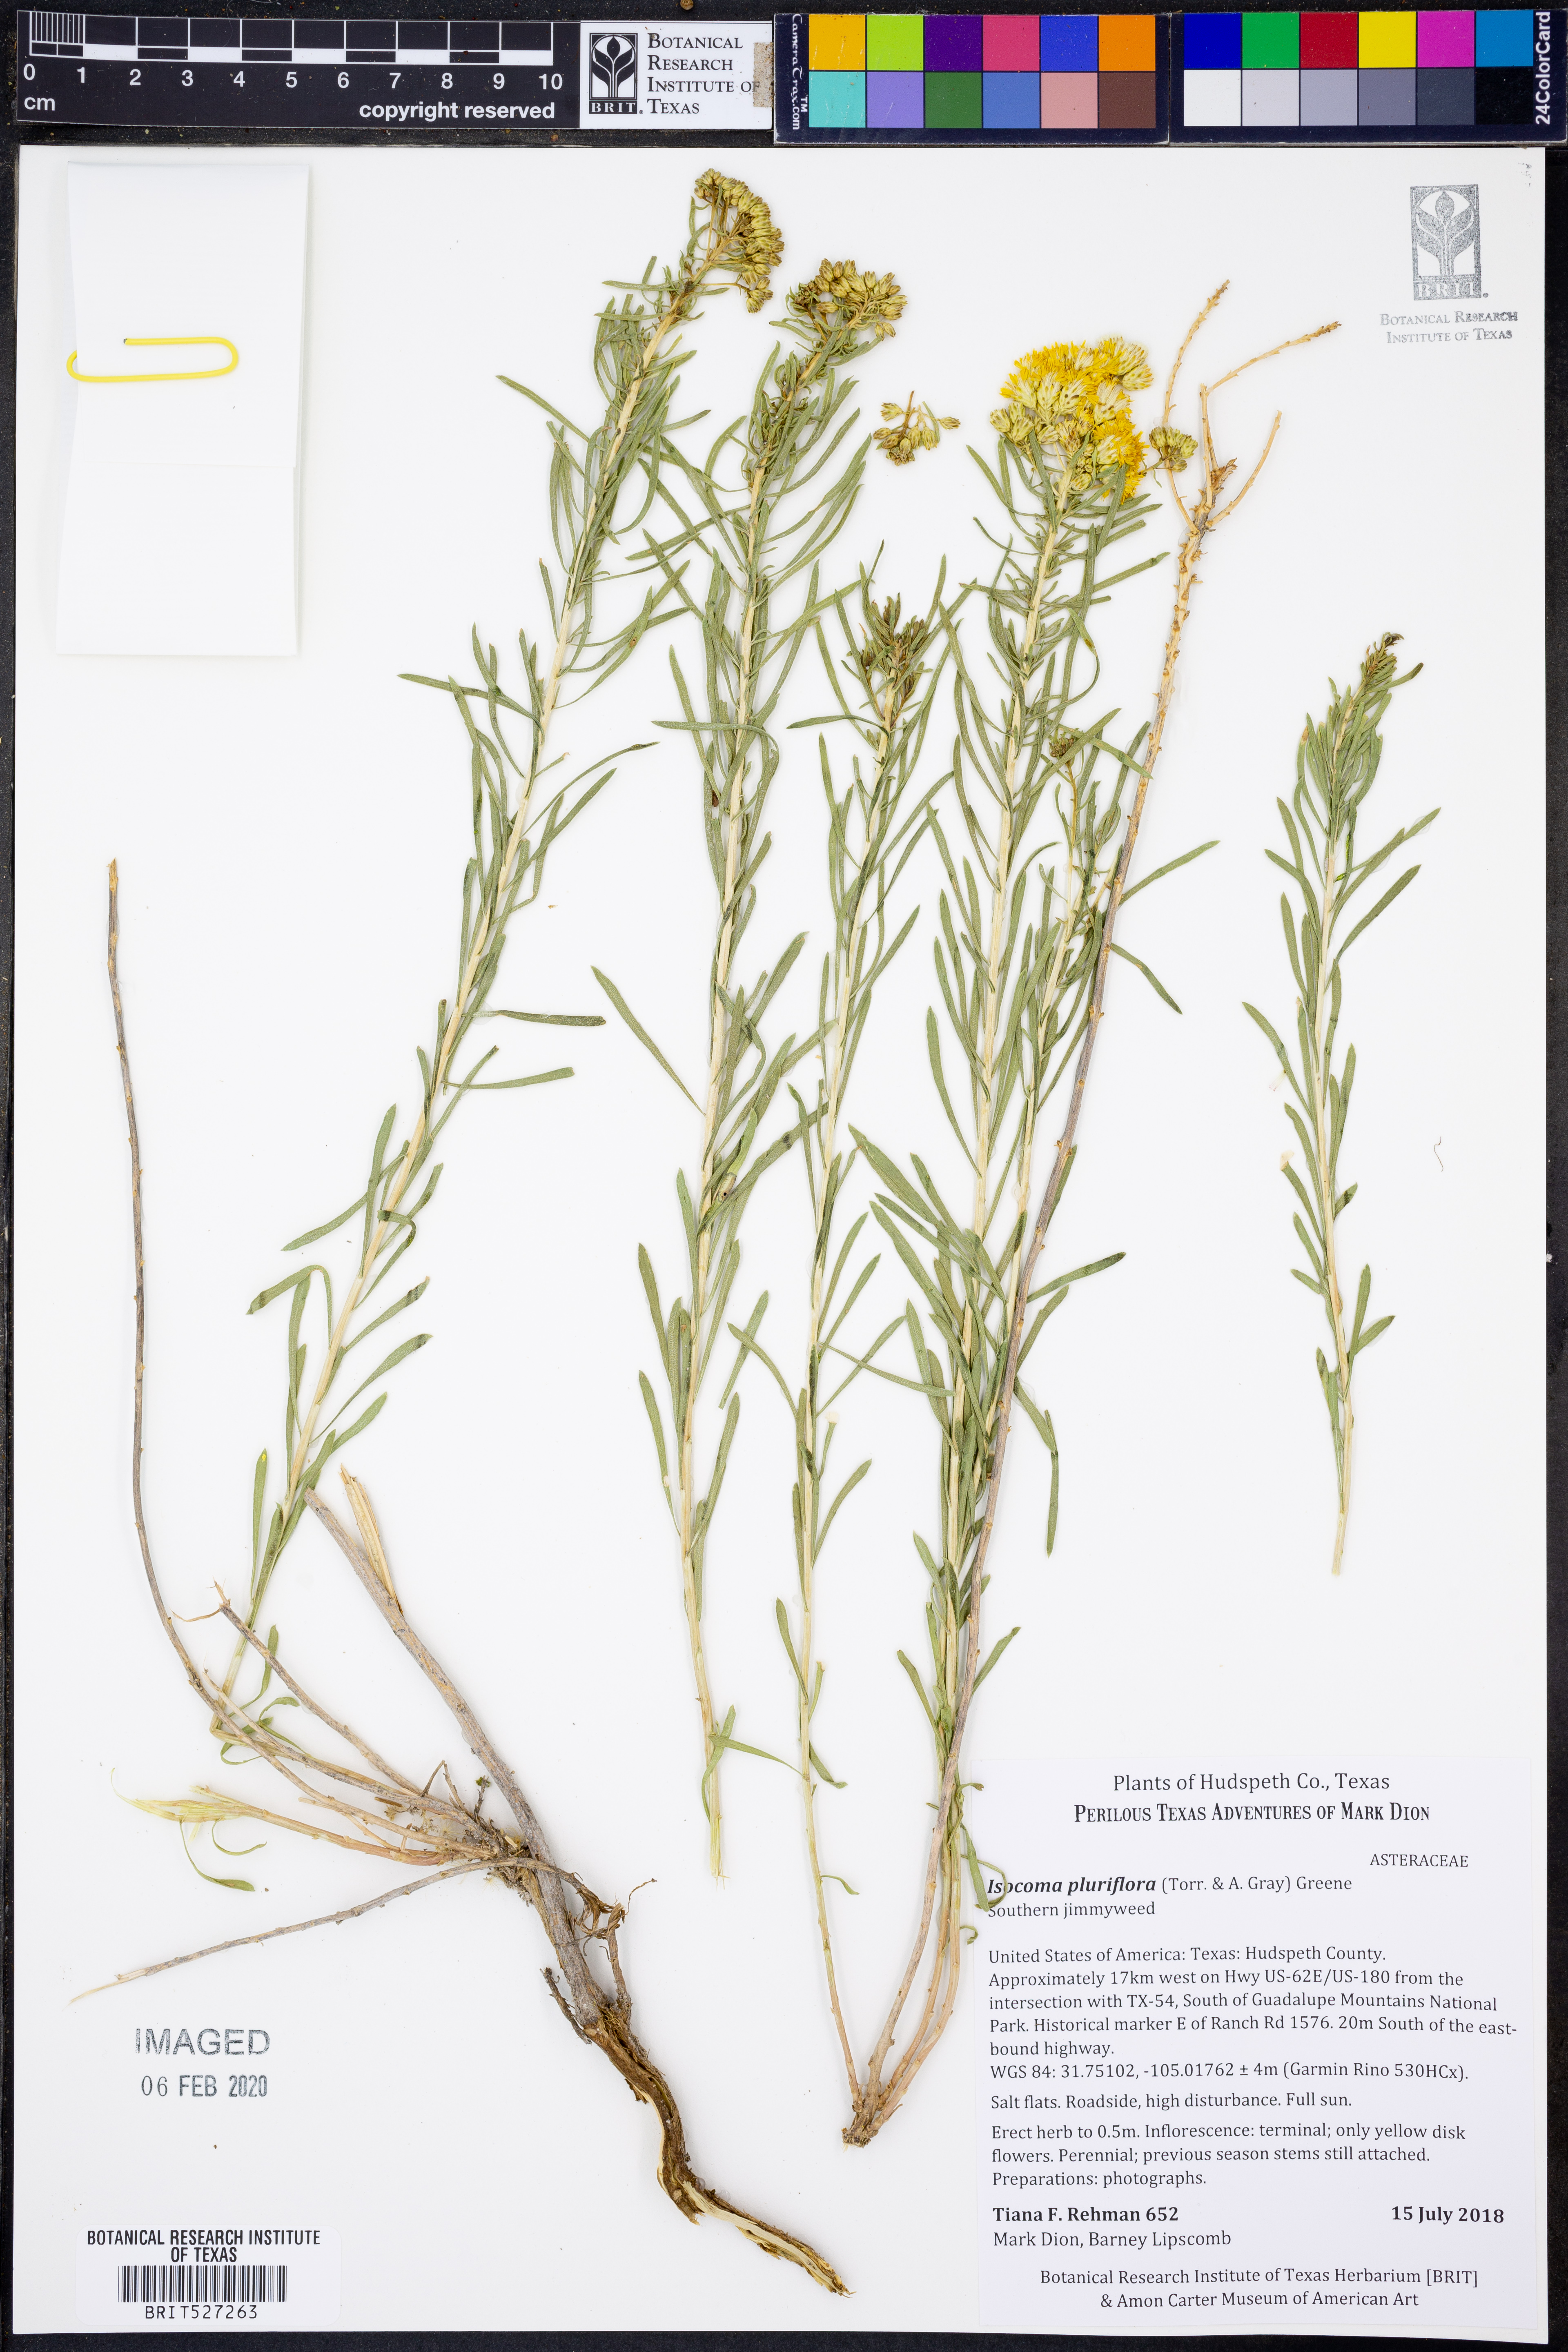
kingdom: Plantae
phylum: Tracheophyta
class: Magnoliopsida
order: Asterales
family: Asteraceae
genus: Isocoma
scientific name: Isocoma pluriflora
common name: Southern jimmyweed
